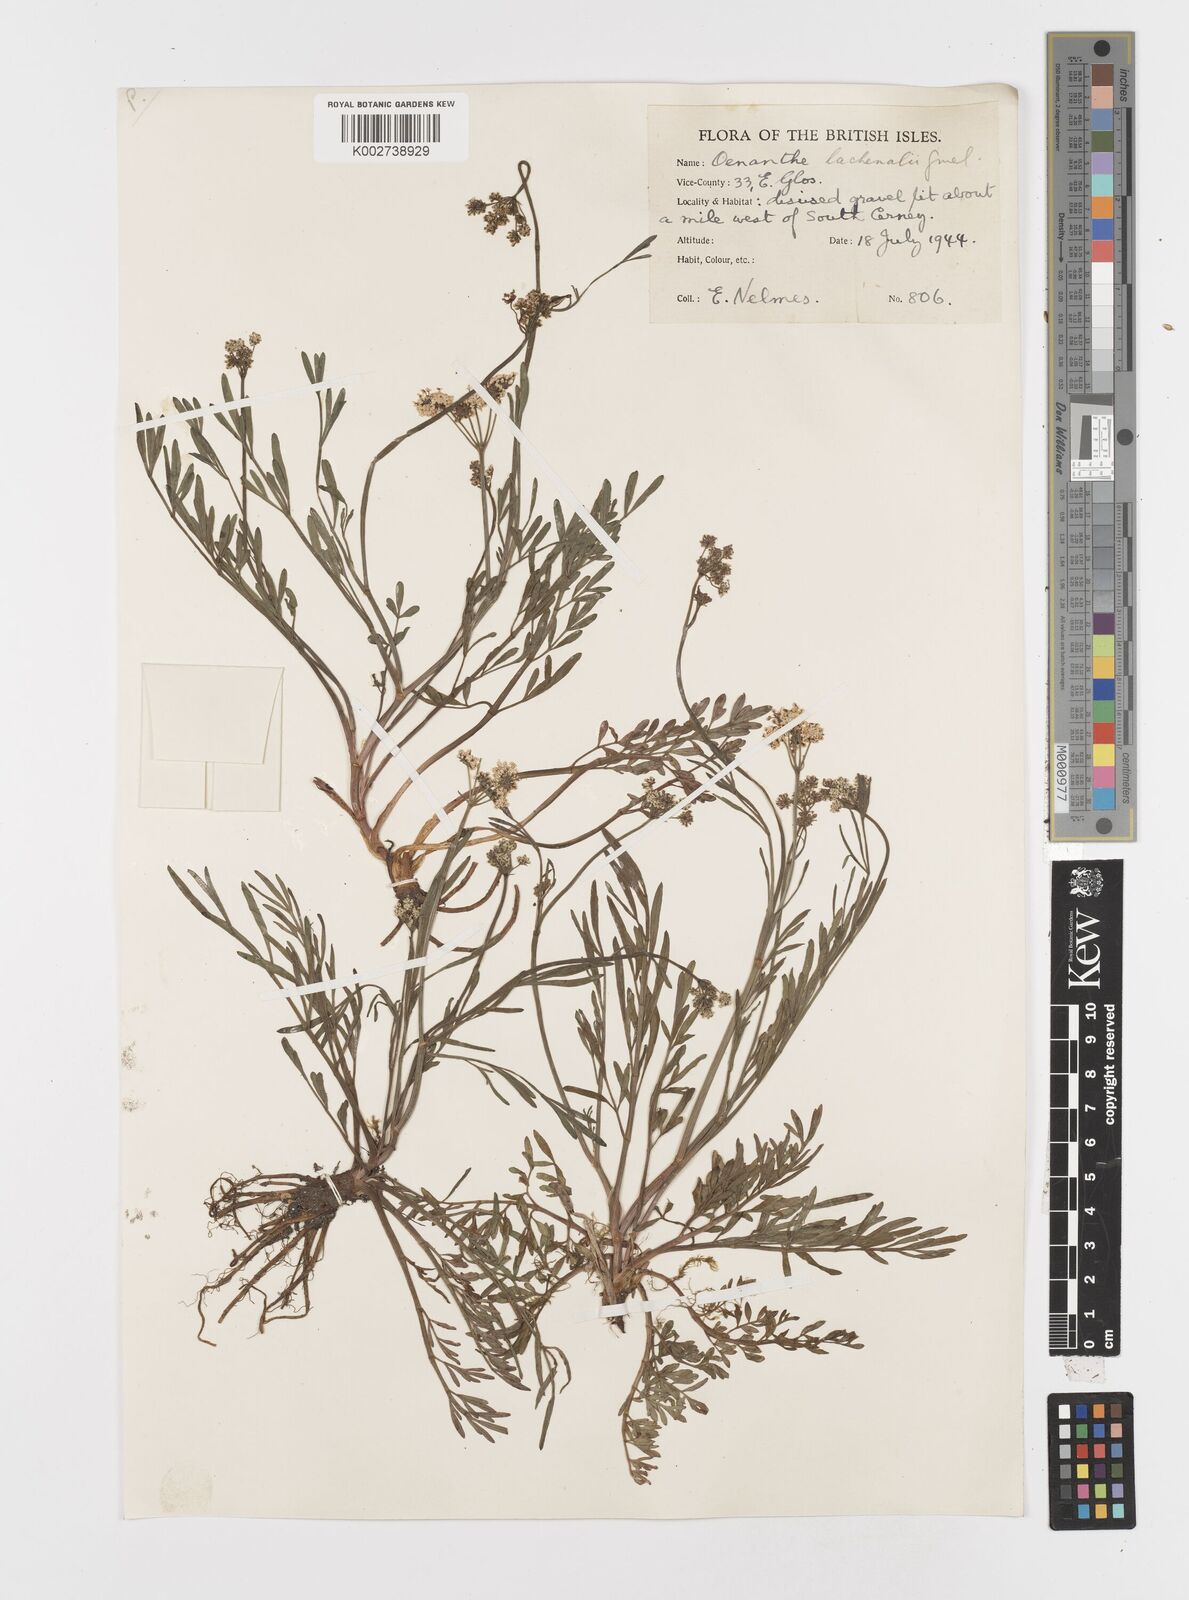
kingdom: Plantae
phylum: Tracheophyta
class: Magnoliopsida
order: Apiales
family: Apiaceae
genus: Oenanthe
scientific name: Oenanthe lachenalii
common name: Parsley water-dropwort
